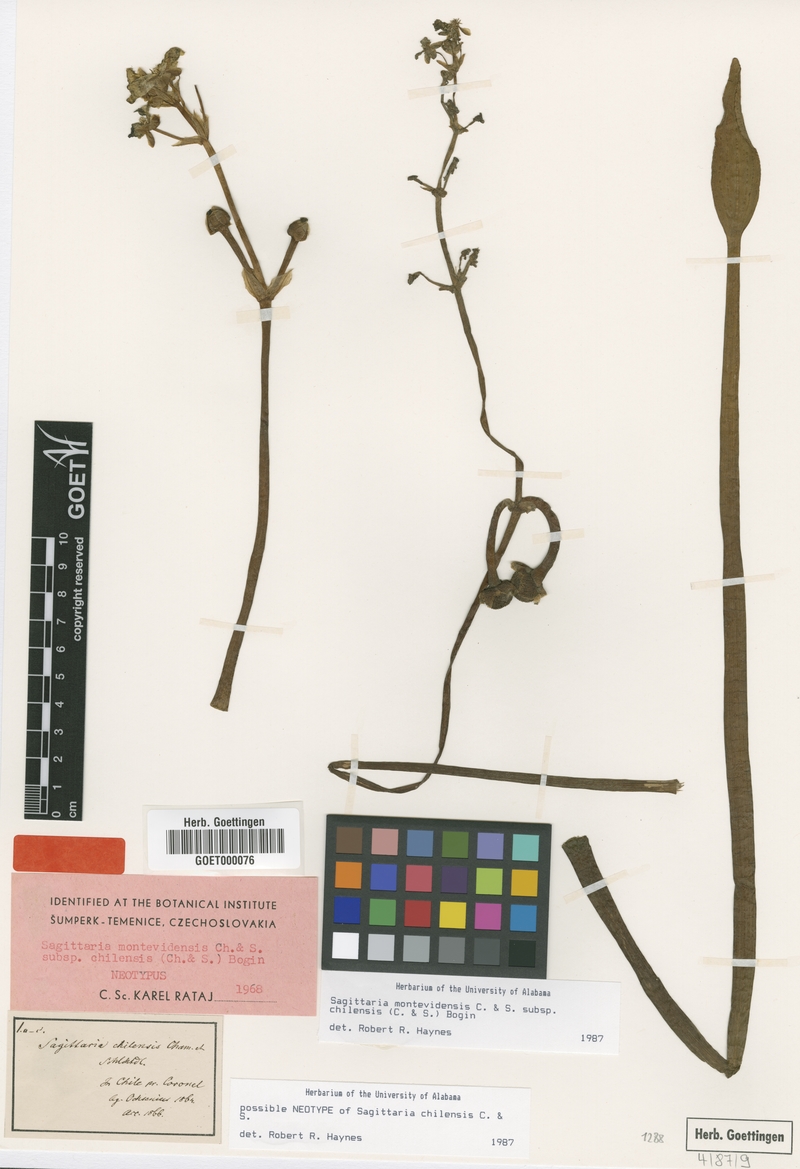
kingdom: Plantae
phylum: Tracheophyta
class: Liliopsida
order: Alismatales
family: Alismataceae
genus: Sagittaria
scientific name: Sagittaria montevidensis
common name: Giant arrowhead
